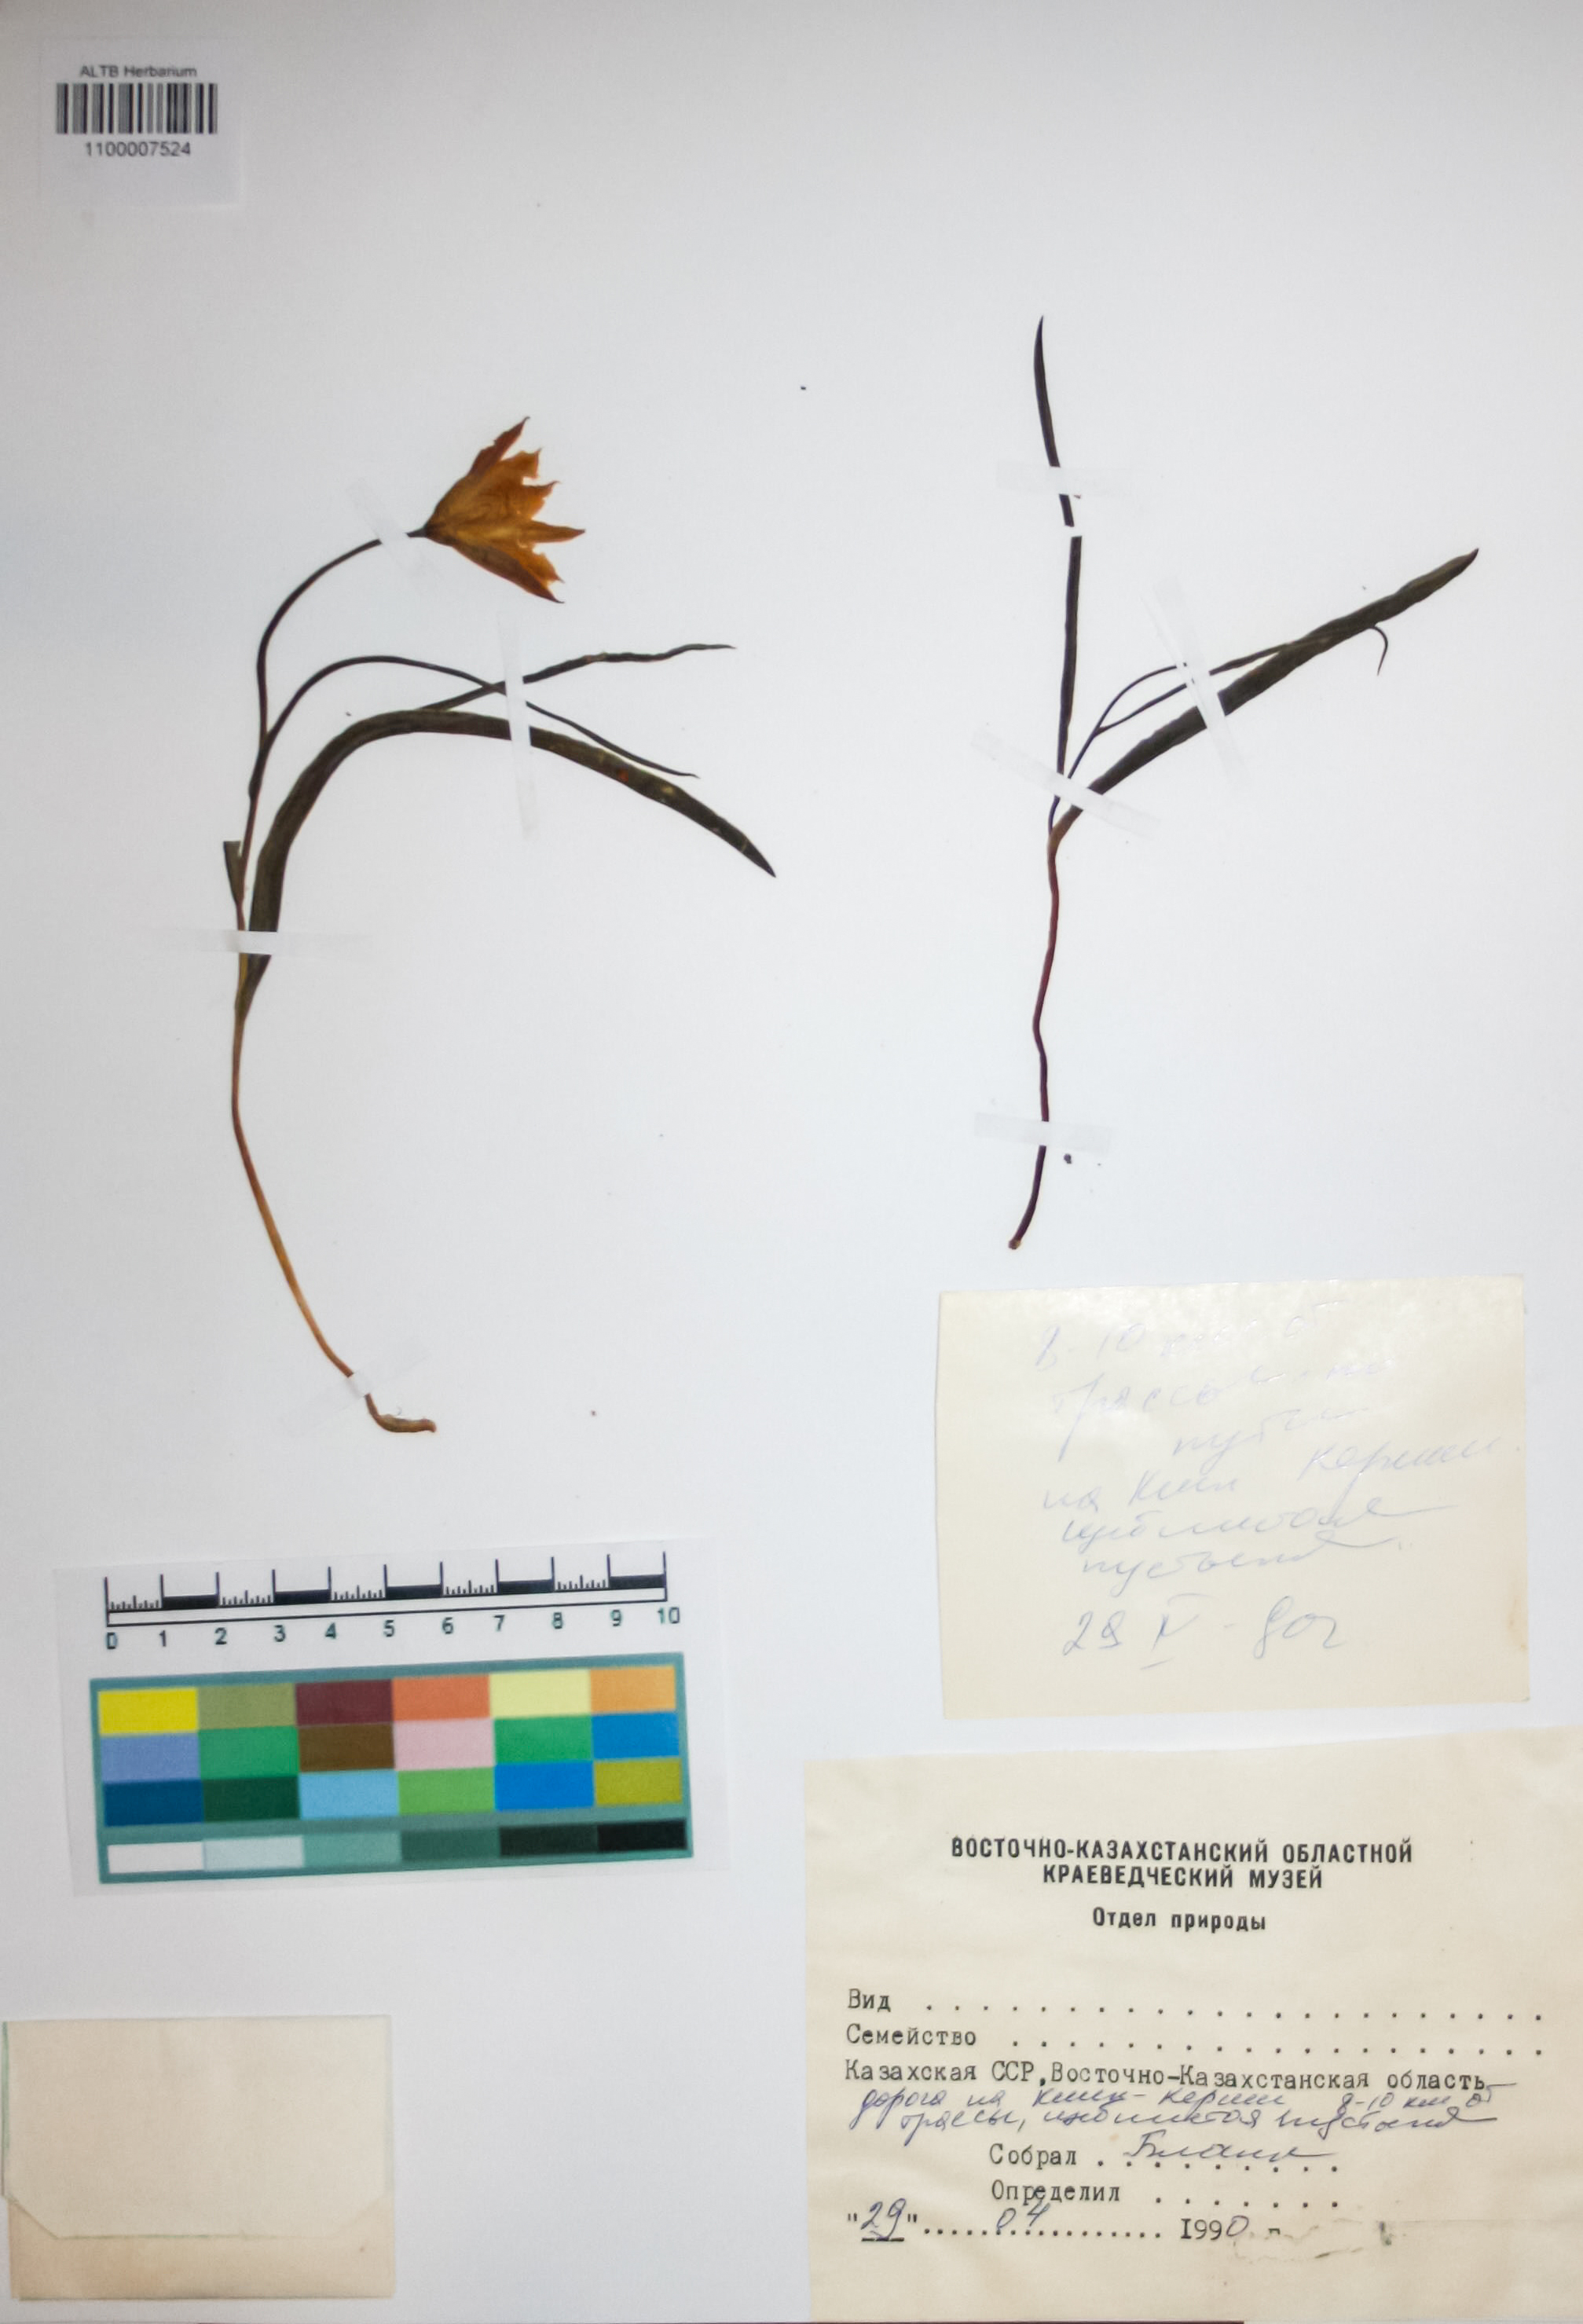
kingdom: Plantae
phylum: Tracheophyta
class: Liliopsida
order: Liliales
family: Liliaceae
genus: Tulipa
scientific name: Tulipa heteropetala
